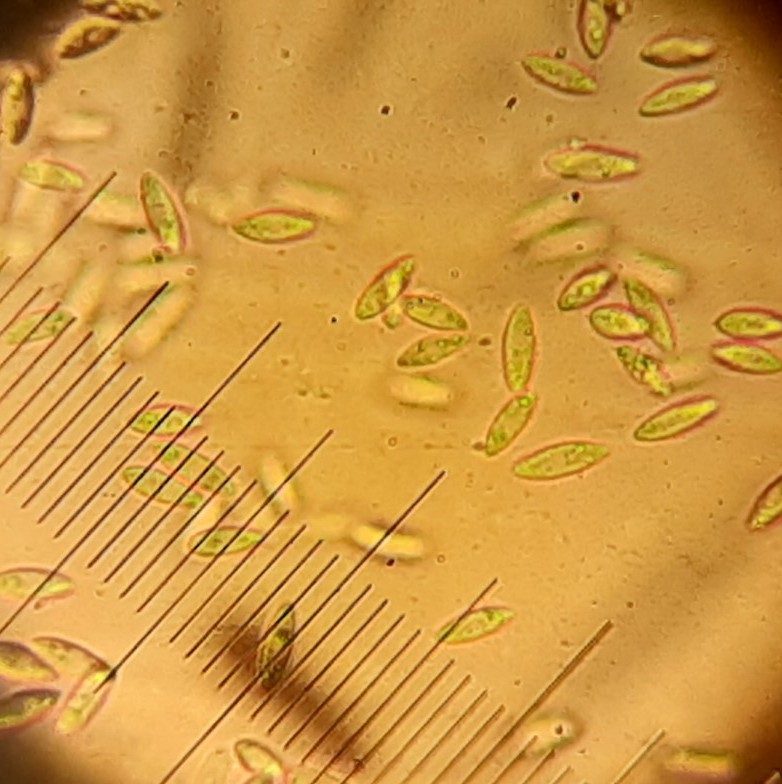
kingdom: Fungi
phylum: Ascomycota
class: Sordariomycetes
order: Hypocreales
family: Nectriaceae
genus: Pseudonectria
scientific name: Pseudonectria buxi
